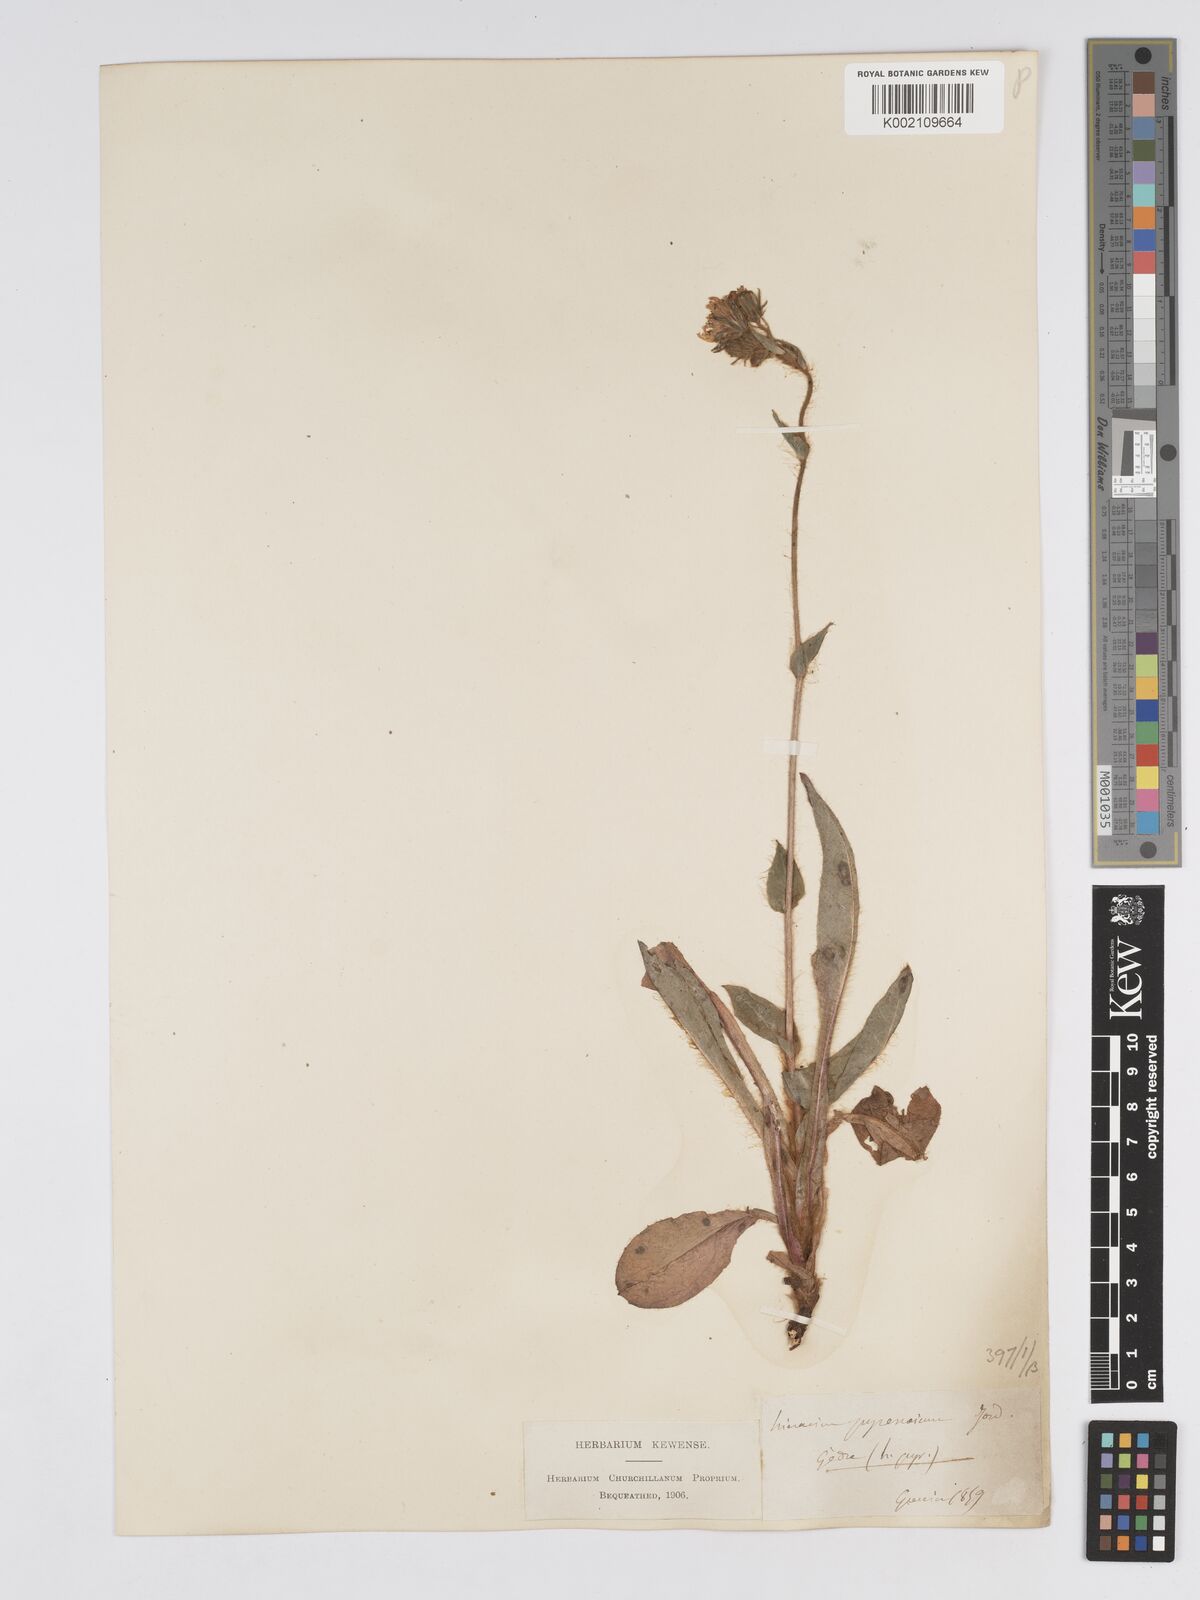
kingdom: Plantae
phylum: Tracheophyta
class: Magnoliopsida
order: Asterales
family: Asteraceae
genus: Hieracium
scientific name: Hieracium nobile
